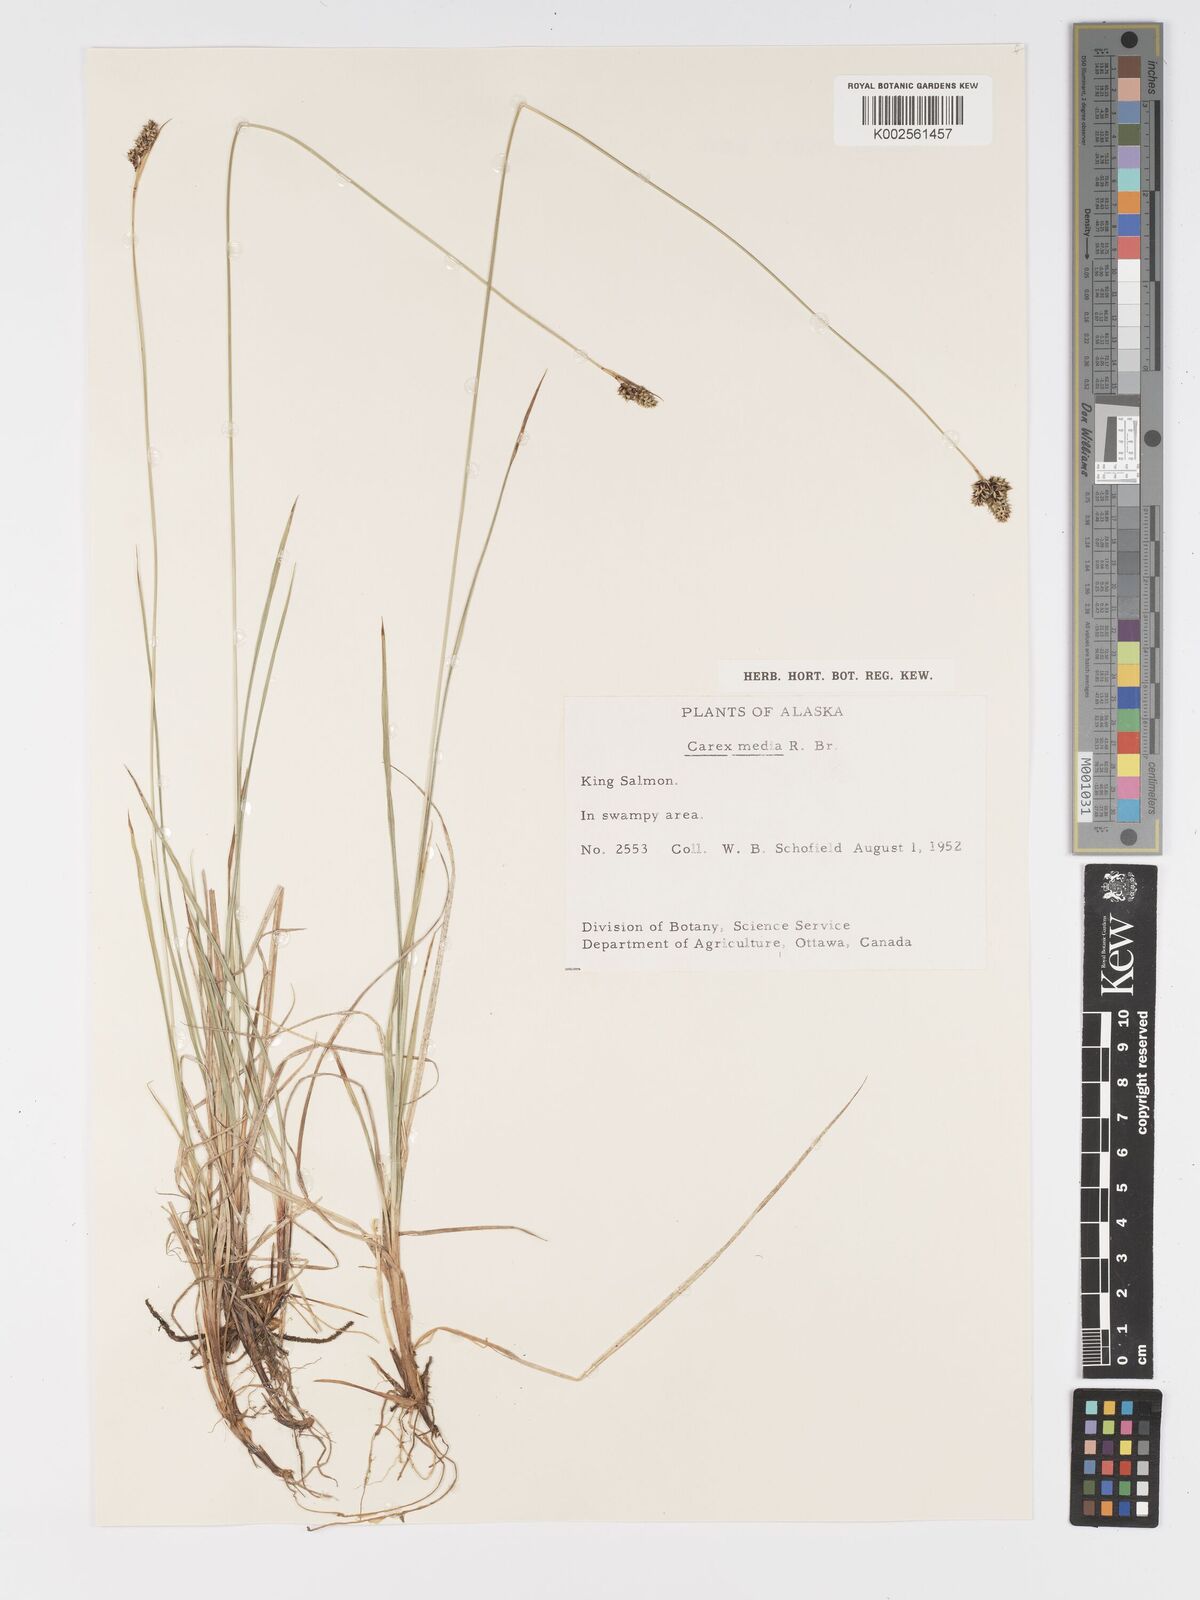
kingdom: Plantae
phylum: Tracheophyta
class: Liliopsida
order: Poales
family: Cyperaceae
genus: Carex
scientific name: Carex media
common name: Alpine sedge
